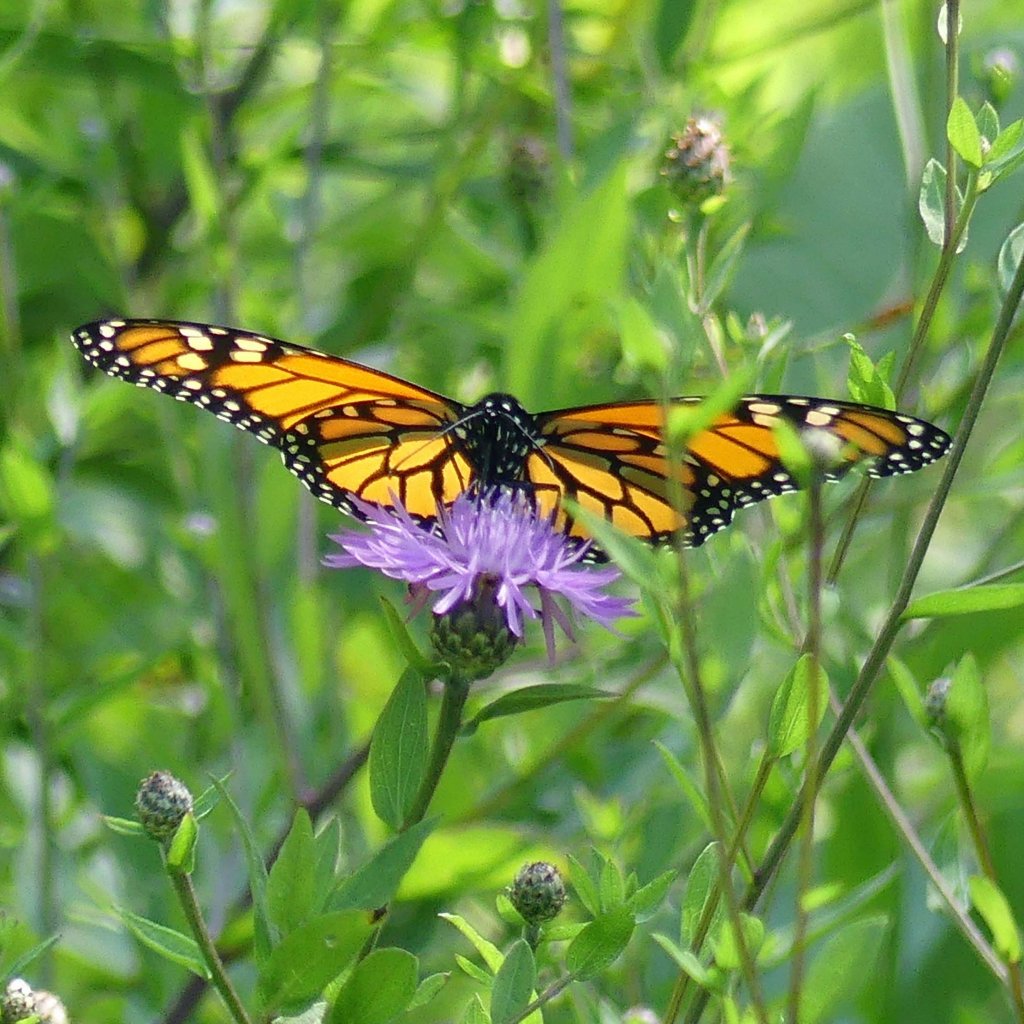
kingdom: Animalia
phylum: Arthropoda
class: Insecta
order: Lepidoptera
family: Nymphalidae
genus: Danaus
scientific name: Danaus plexippus
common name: Monarch
